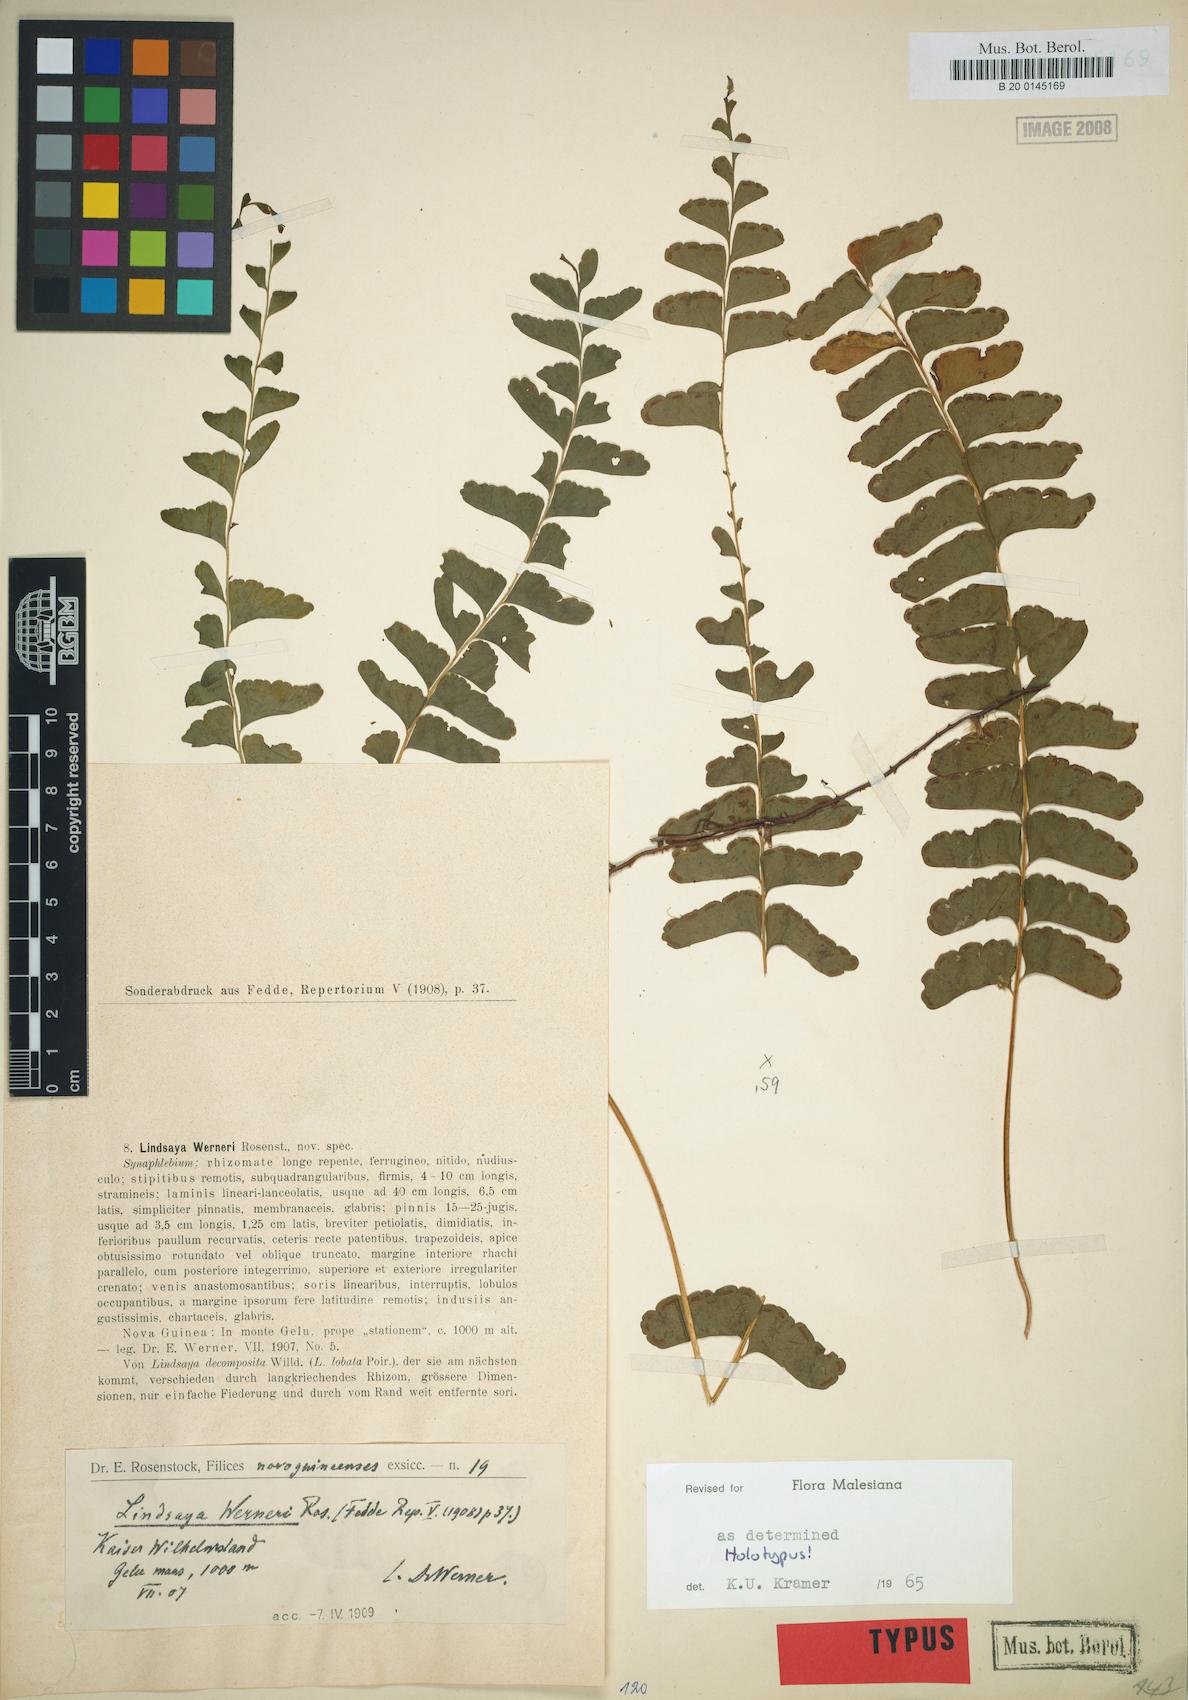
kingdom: Plantae
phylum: Tracheophyta
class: Polypodiopsida
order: Polypodiales
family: Lindsaeaceae
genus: Lindsaea
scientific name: Lindsaea werneri
